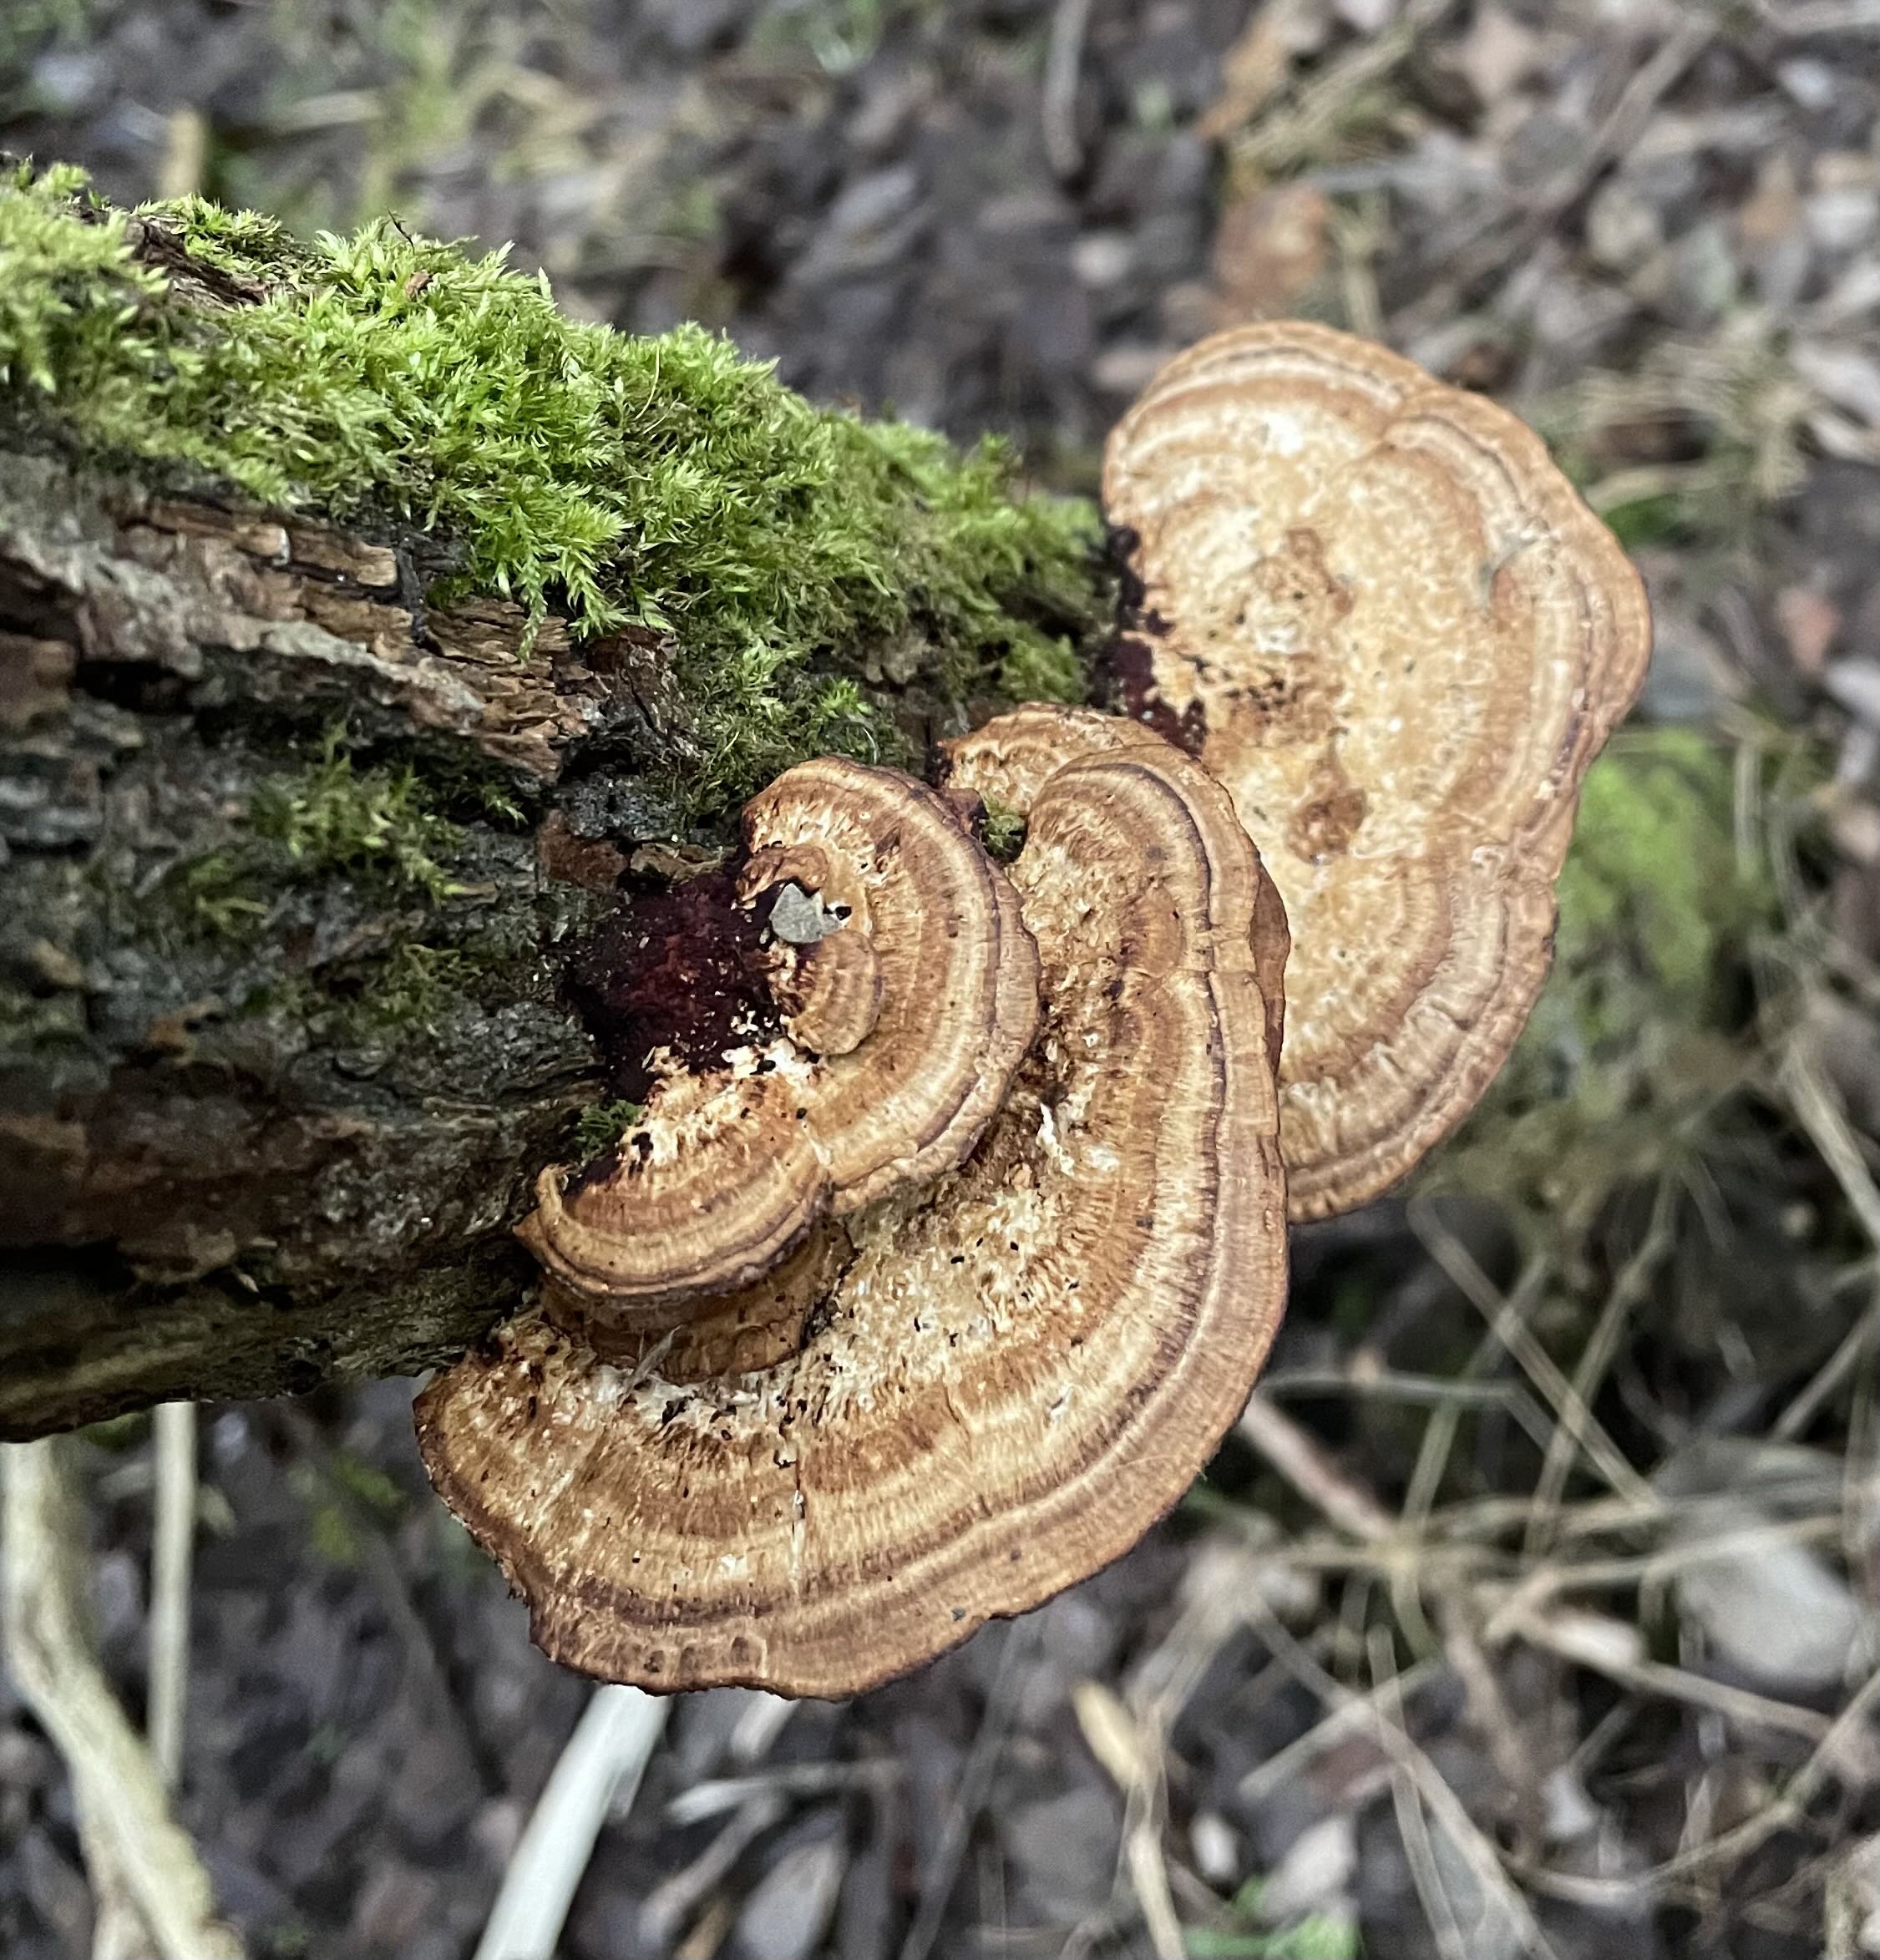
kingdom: Fungi
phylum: Basidiomycota
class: Agaricomycetes
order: Polyporales
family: Polyporaceae
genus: Daedaleopsis
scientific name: Daedaleopsis confragosa
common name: rødmende læderporesvamp
